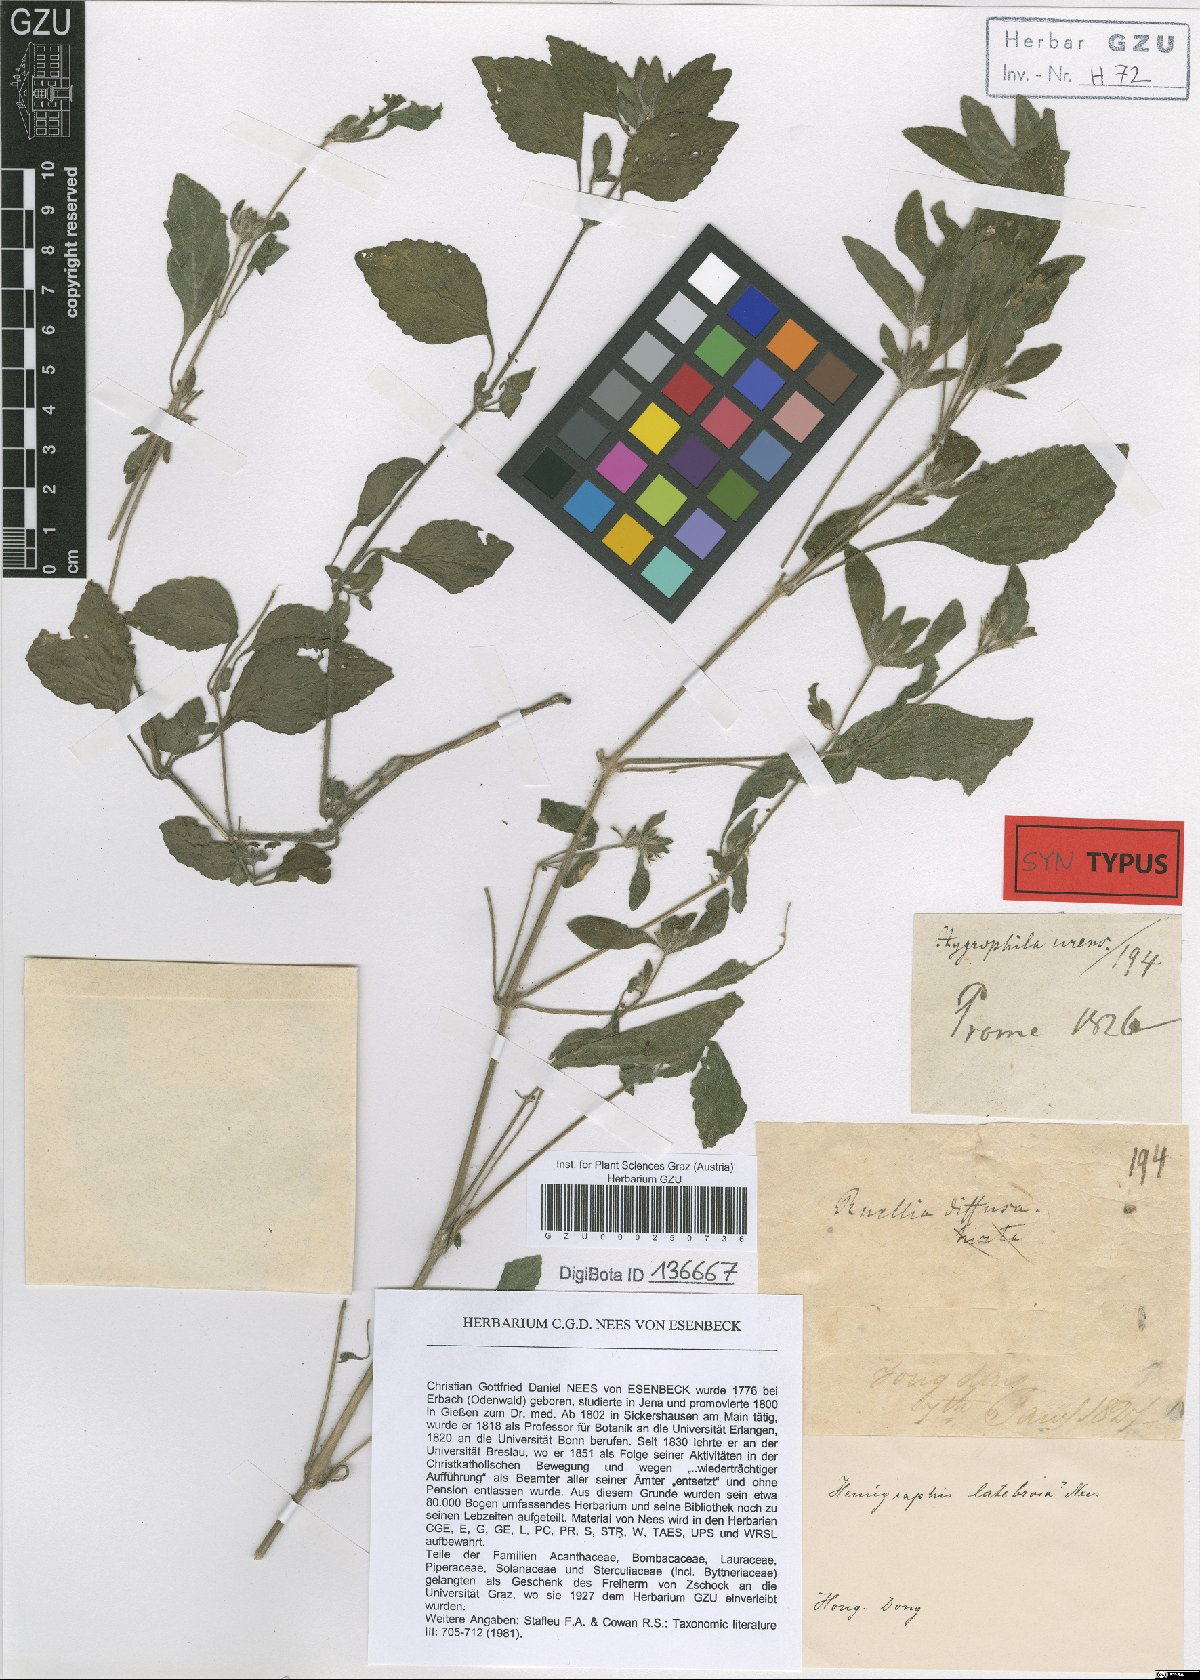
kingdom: Plantae
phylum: Tracheophyta
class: Magnoliopsida
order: Lamiales
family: Acanthaceae
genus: Strobilanthes
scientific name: Strobilanthes
